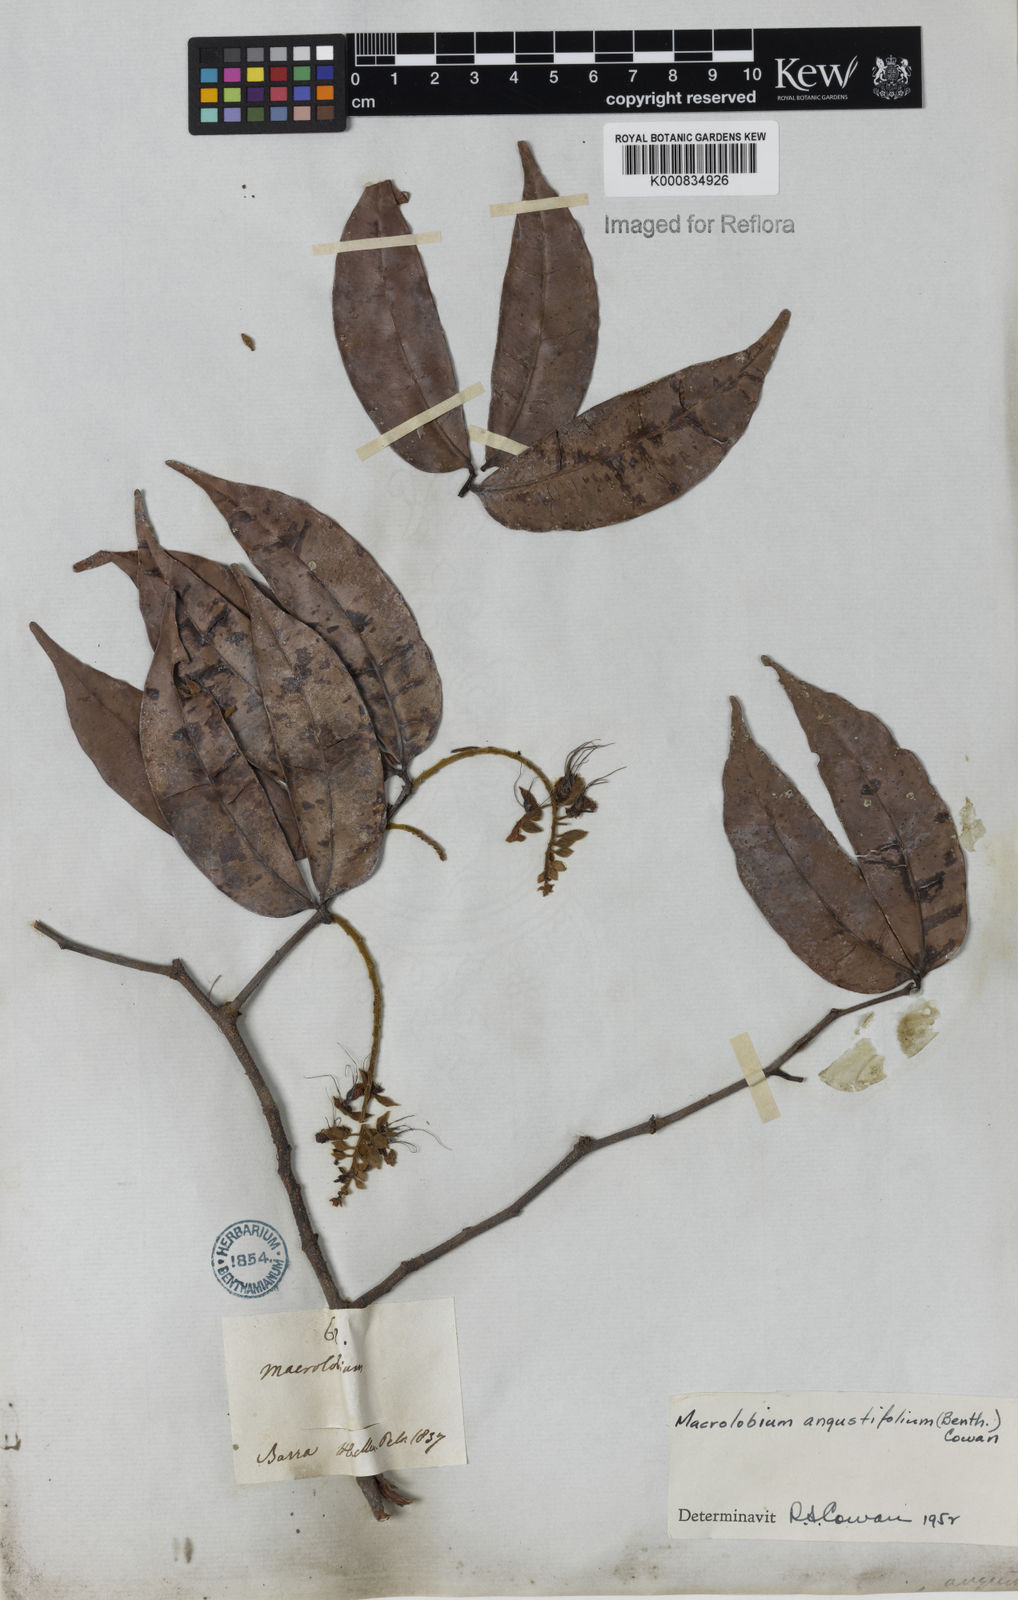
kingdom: Plantae
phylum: Tracheophyta
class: Magnoliopsida
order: Fabales
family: Fabaceae
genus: Macrolobium
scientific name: Macrolobium angustifolium
